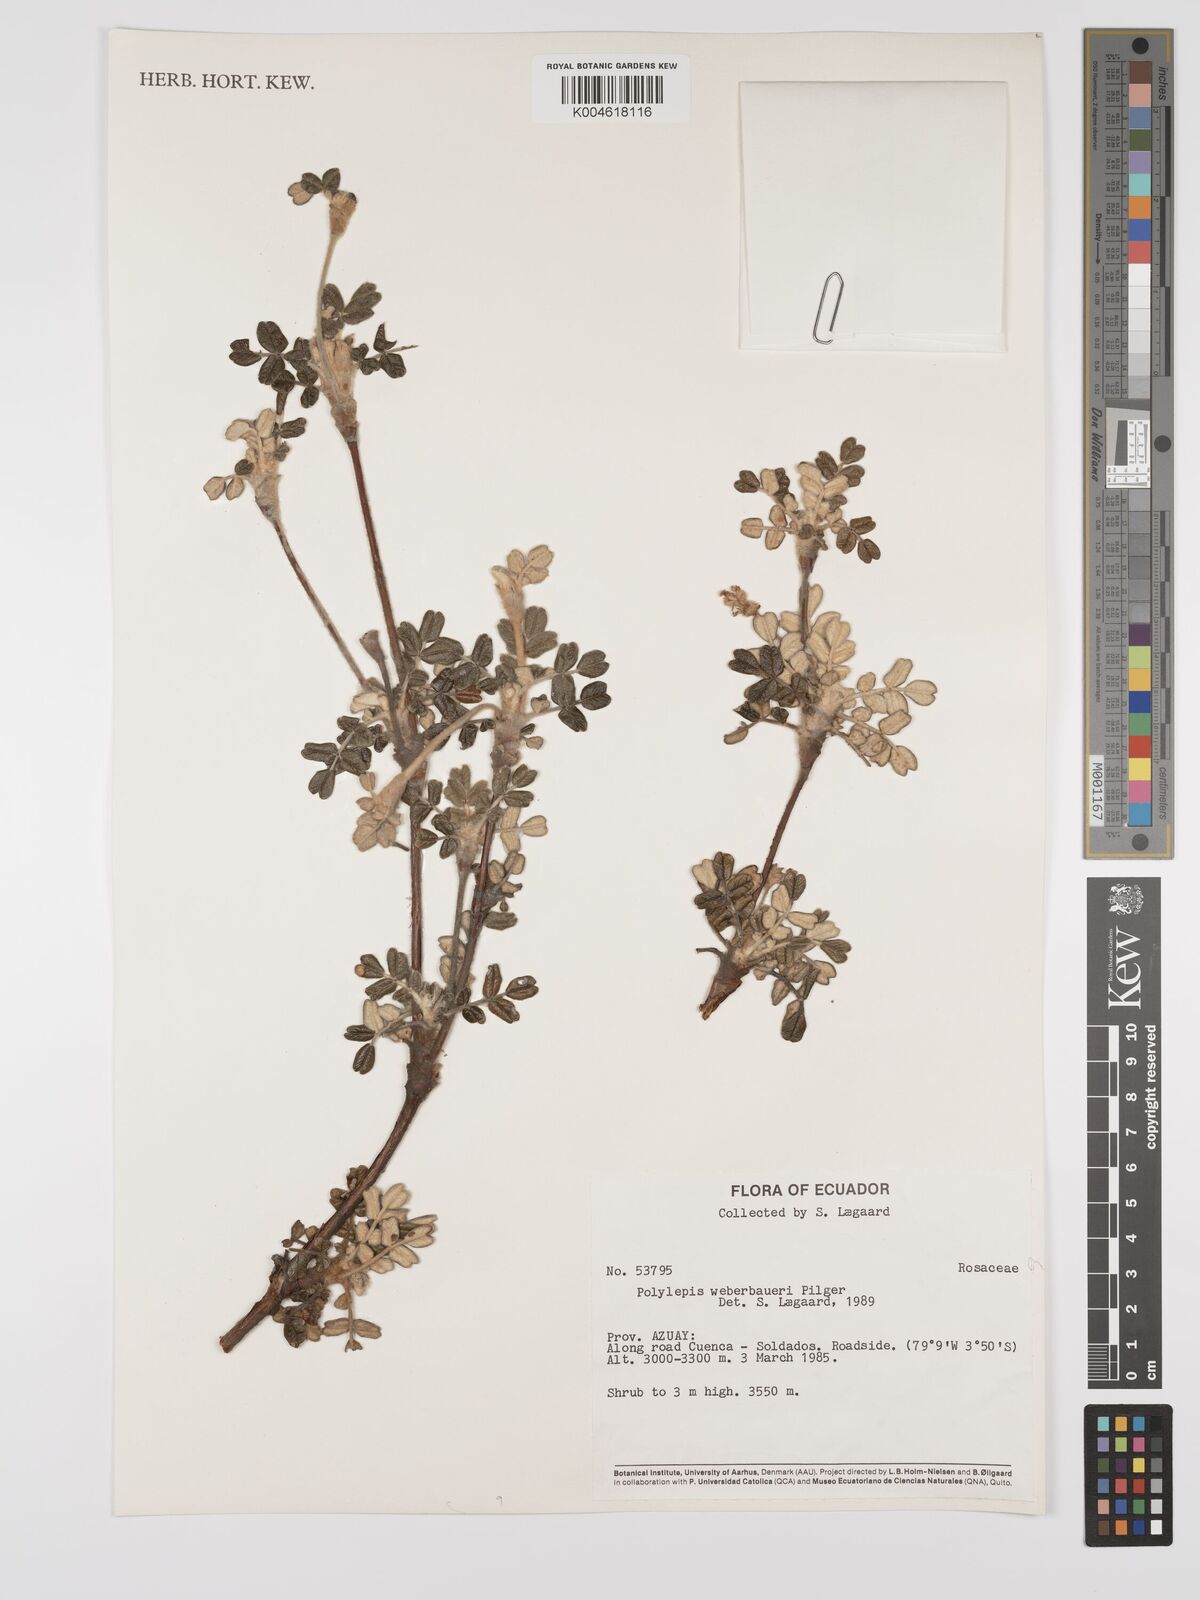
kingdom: Plantae
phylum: Tracheophyta
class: Magnoliopsida
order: Rosales
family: Rosaceae
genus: Polylepis
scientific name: Polylepis weberbaueri
